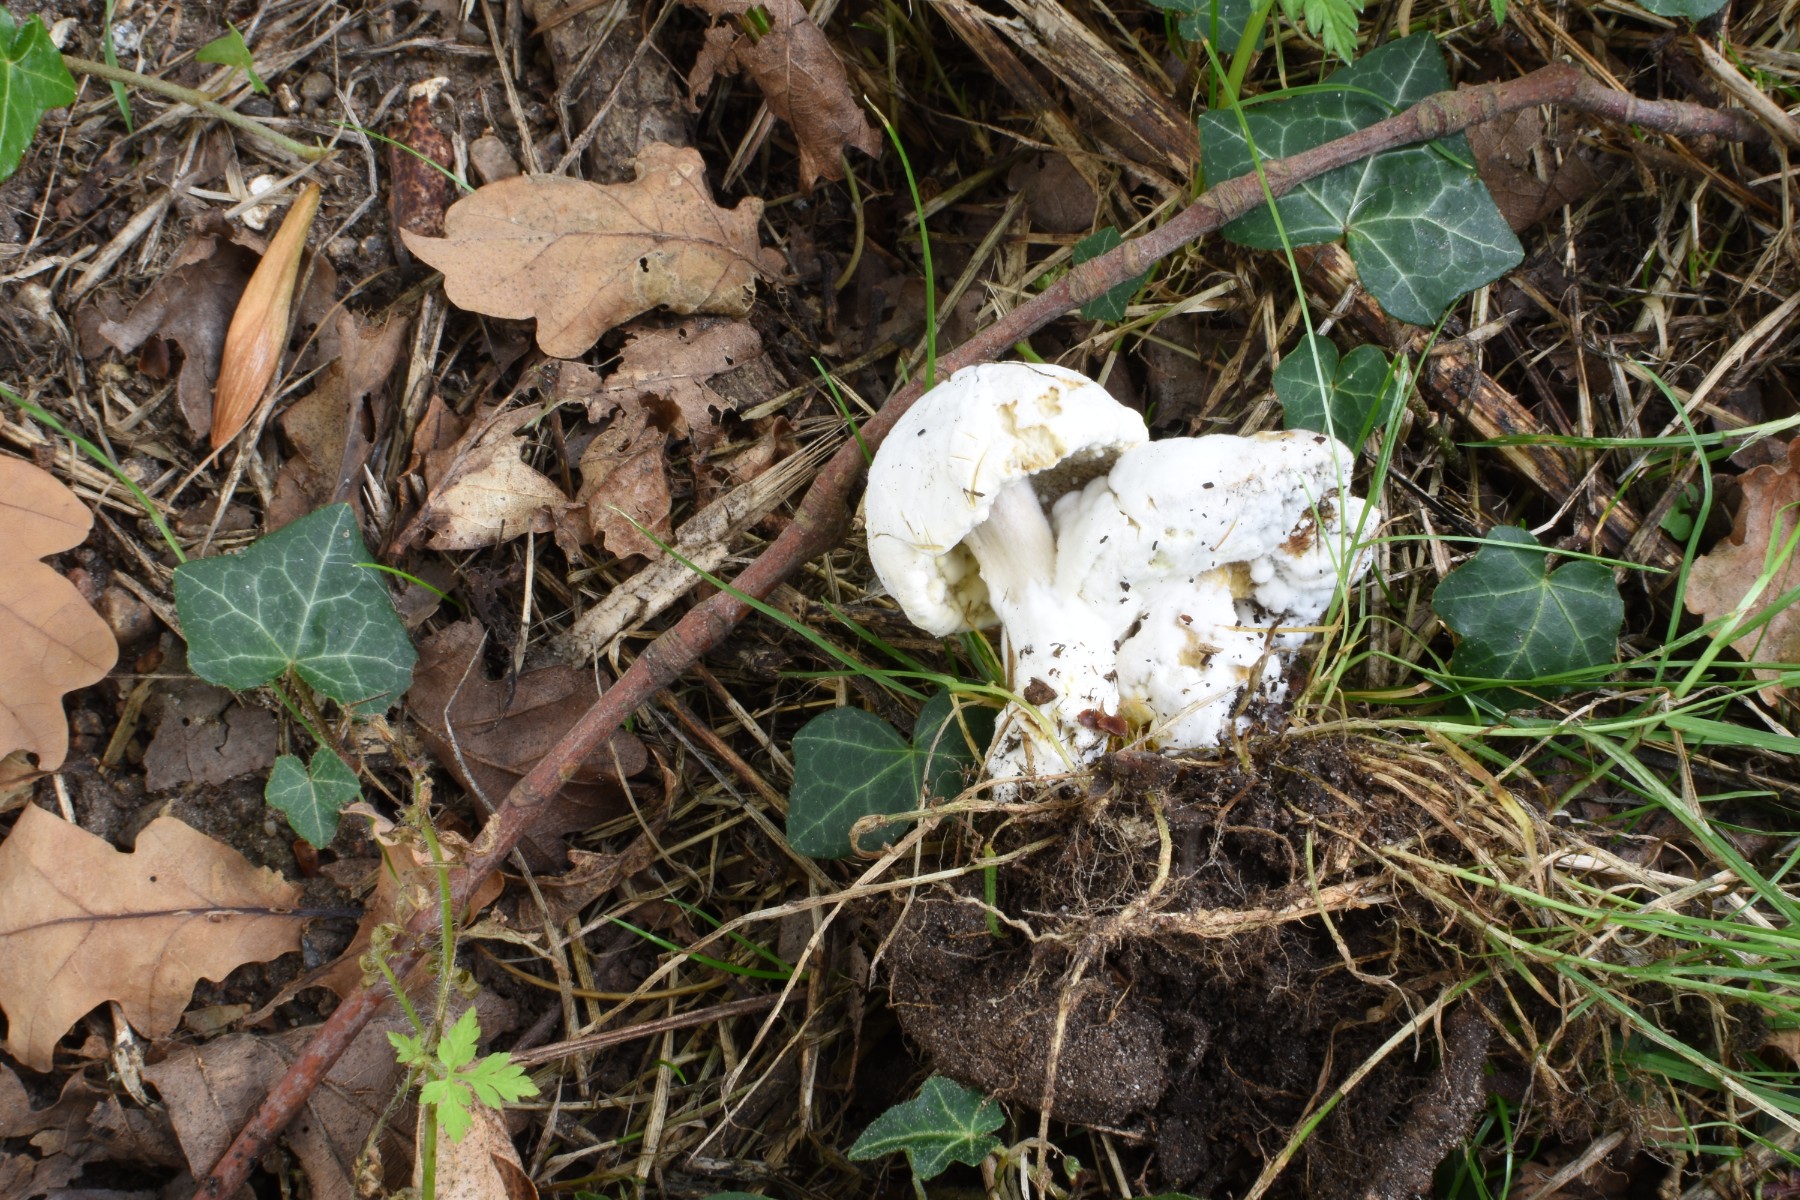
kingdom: Fungi
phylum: Ascomycota
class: Sordariomycetes
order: Hypocreales
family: Hypocreaceae
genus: Hypomyces
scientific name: Hypomyces microspermus
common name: dværgrørhat-snylteskorpe
